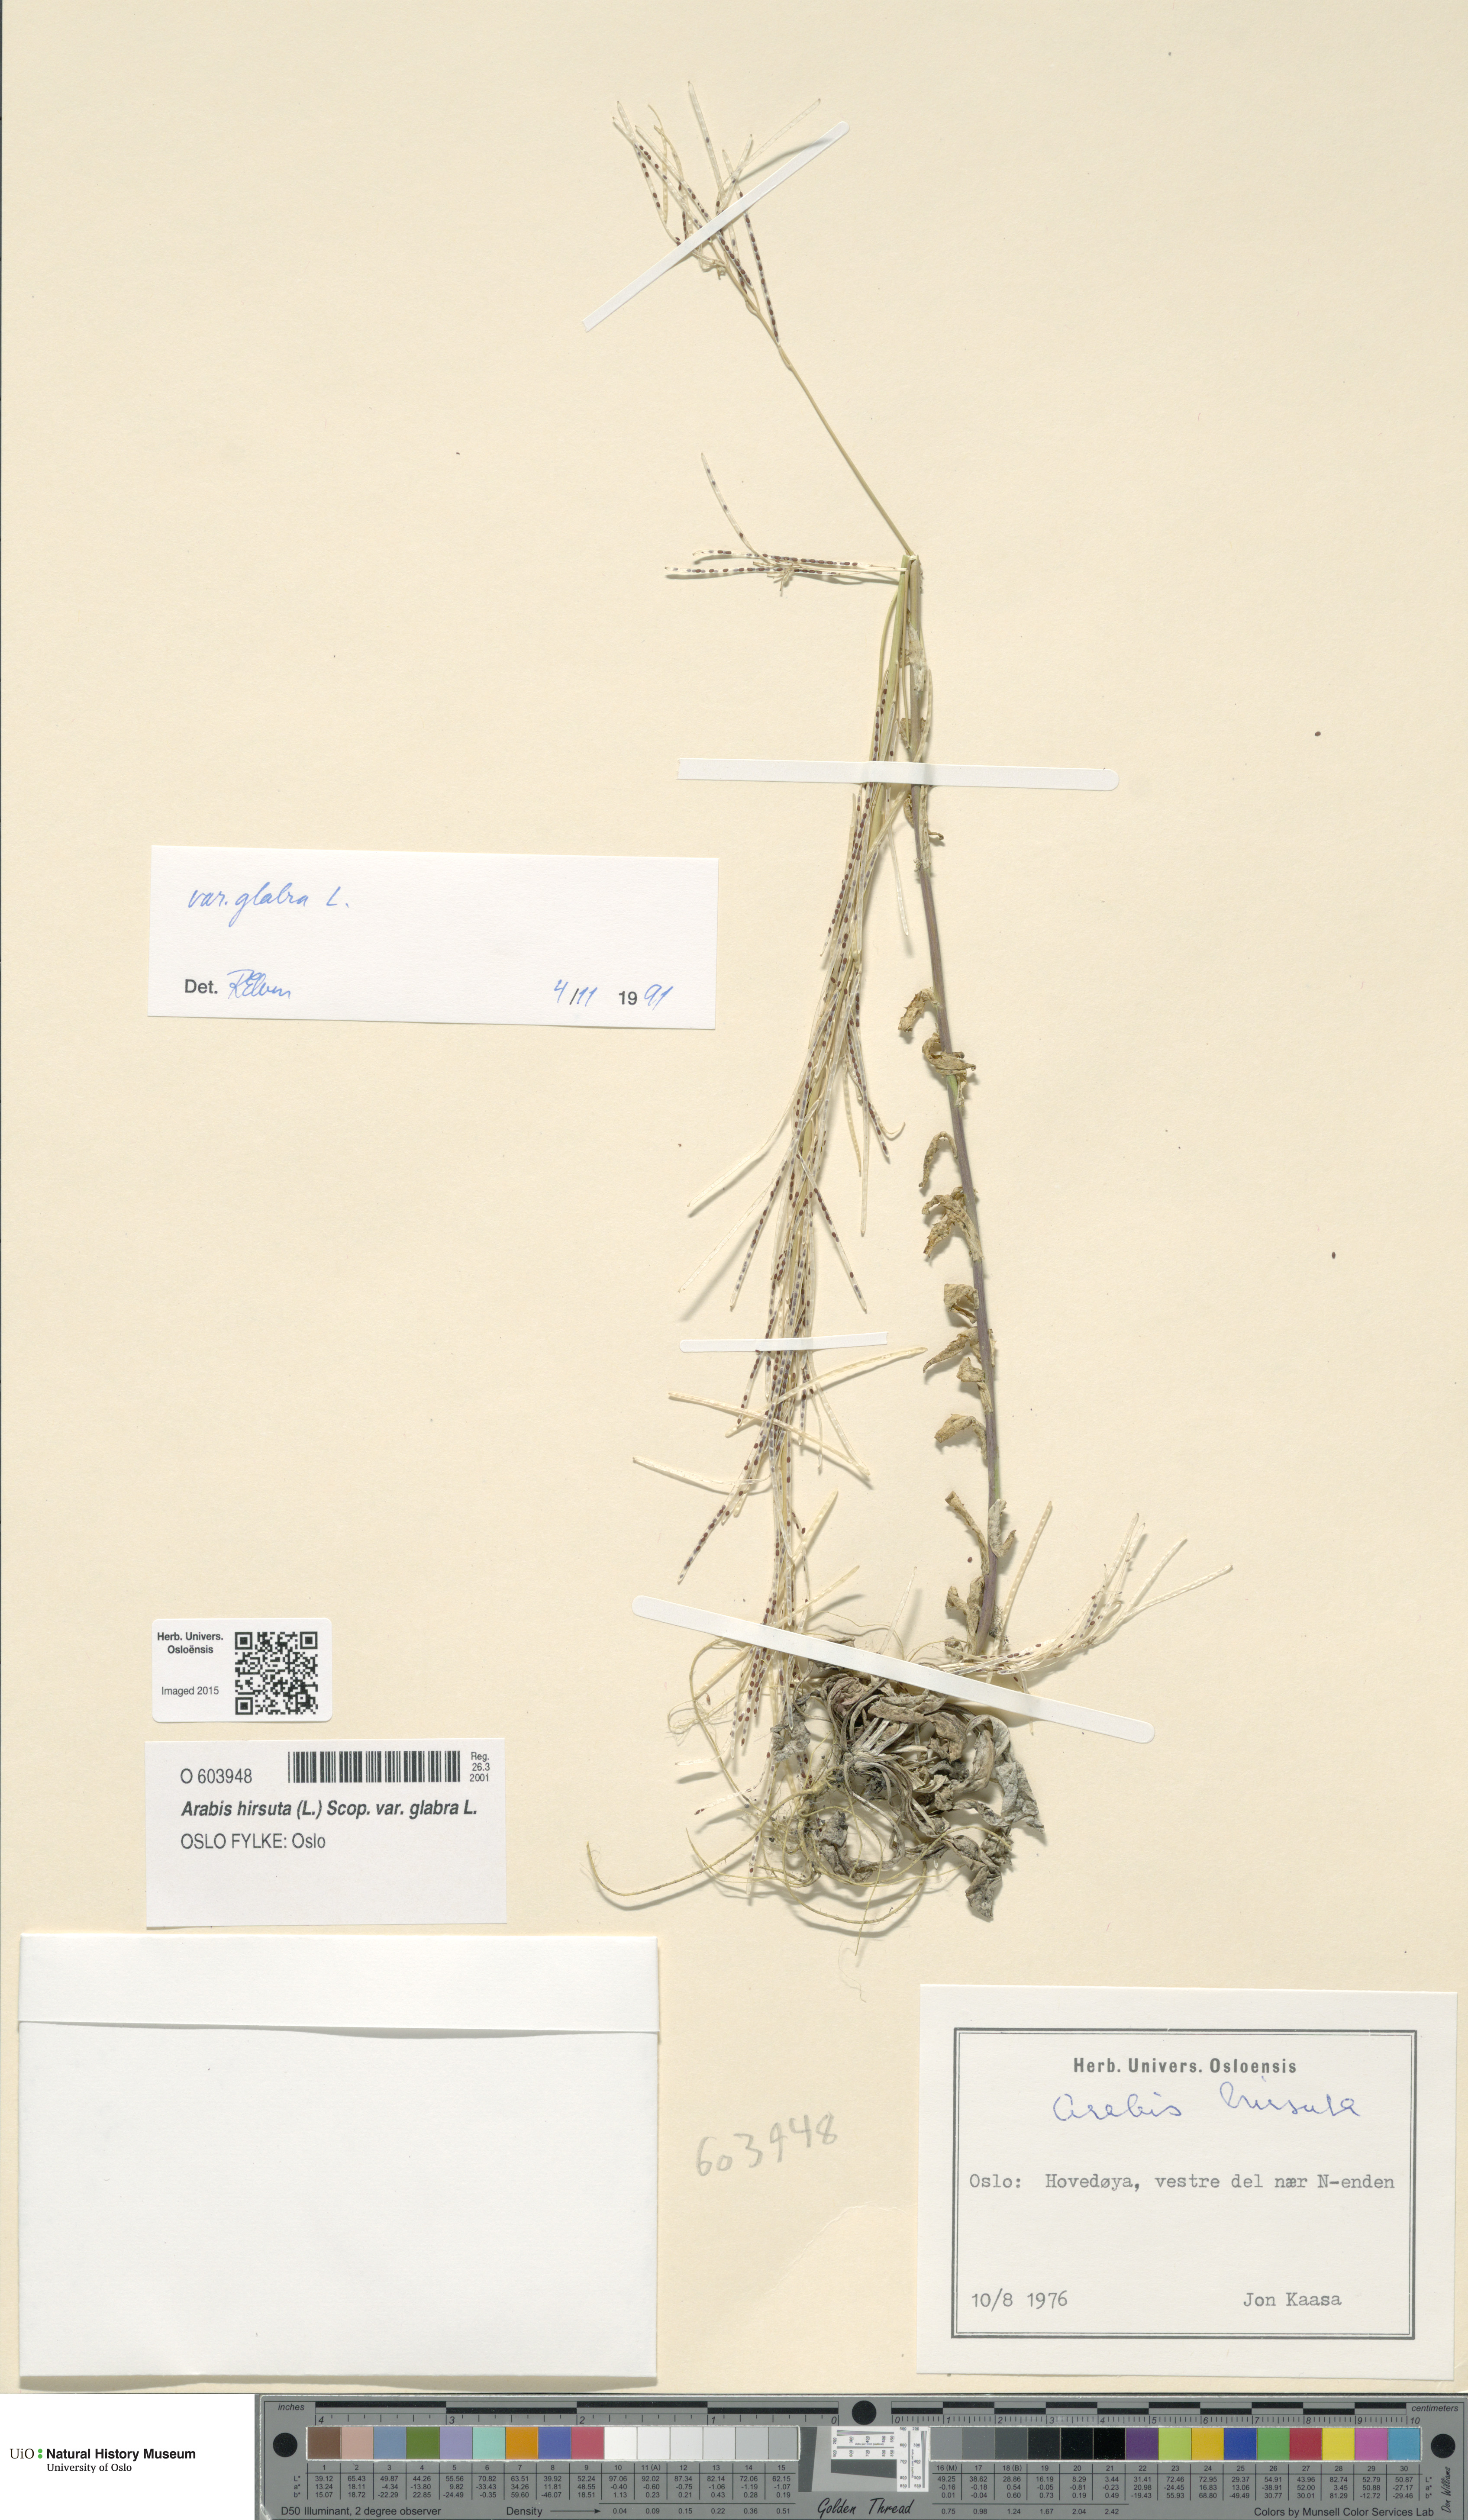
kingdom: Plantae
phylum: Tracheophyta
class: Magnoliopsida
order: Brassicales
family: Brassicaceae
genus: Arabis
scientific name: Arabis hirsuta
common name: Hairy rock-cress
